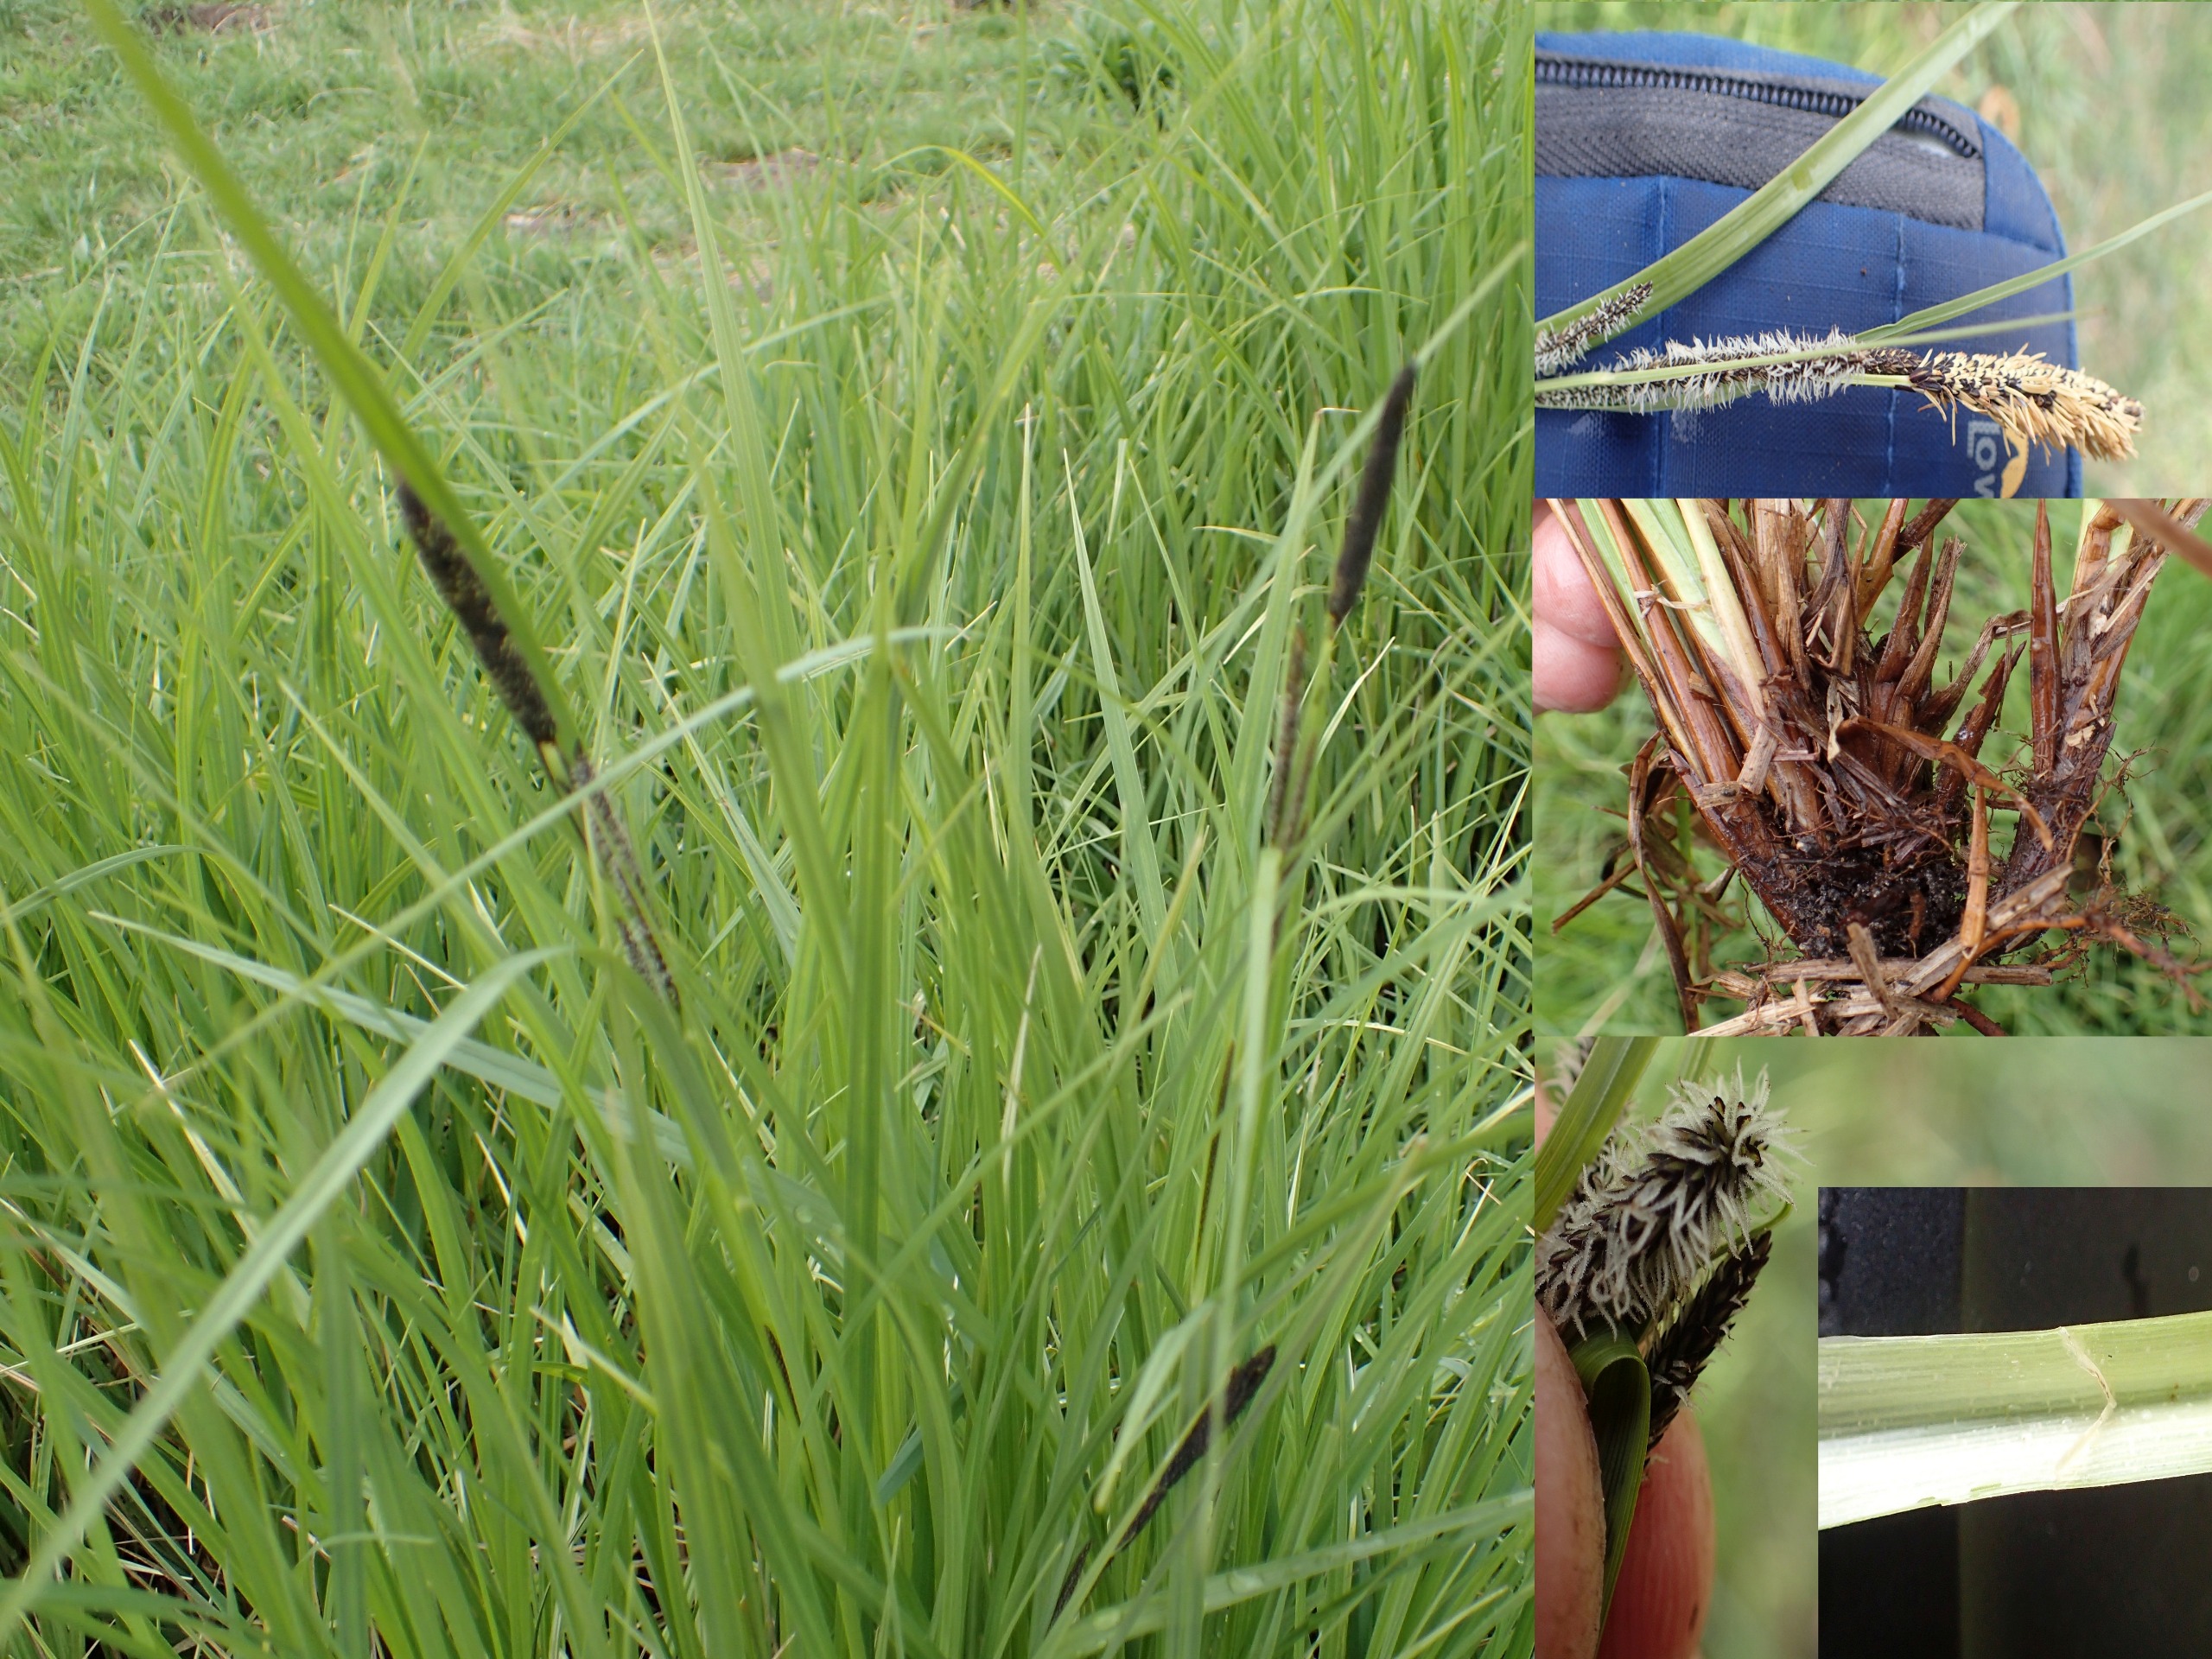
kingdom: Plantae
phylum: Tracheophyta
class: Liliopsida
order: Poales
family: Cyperaceae
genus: Carex
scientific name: Carex acuta
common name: Nikkende star
